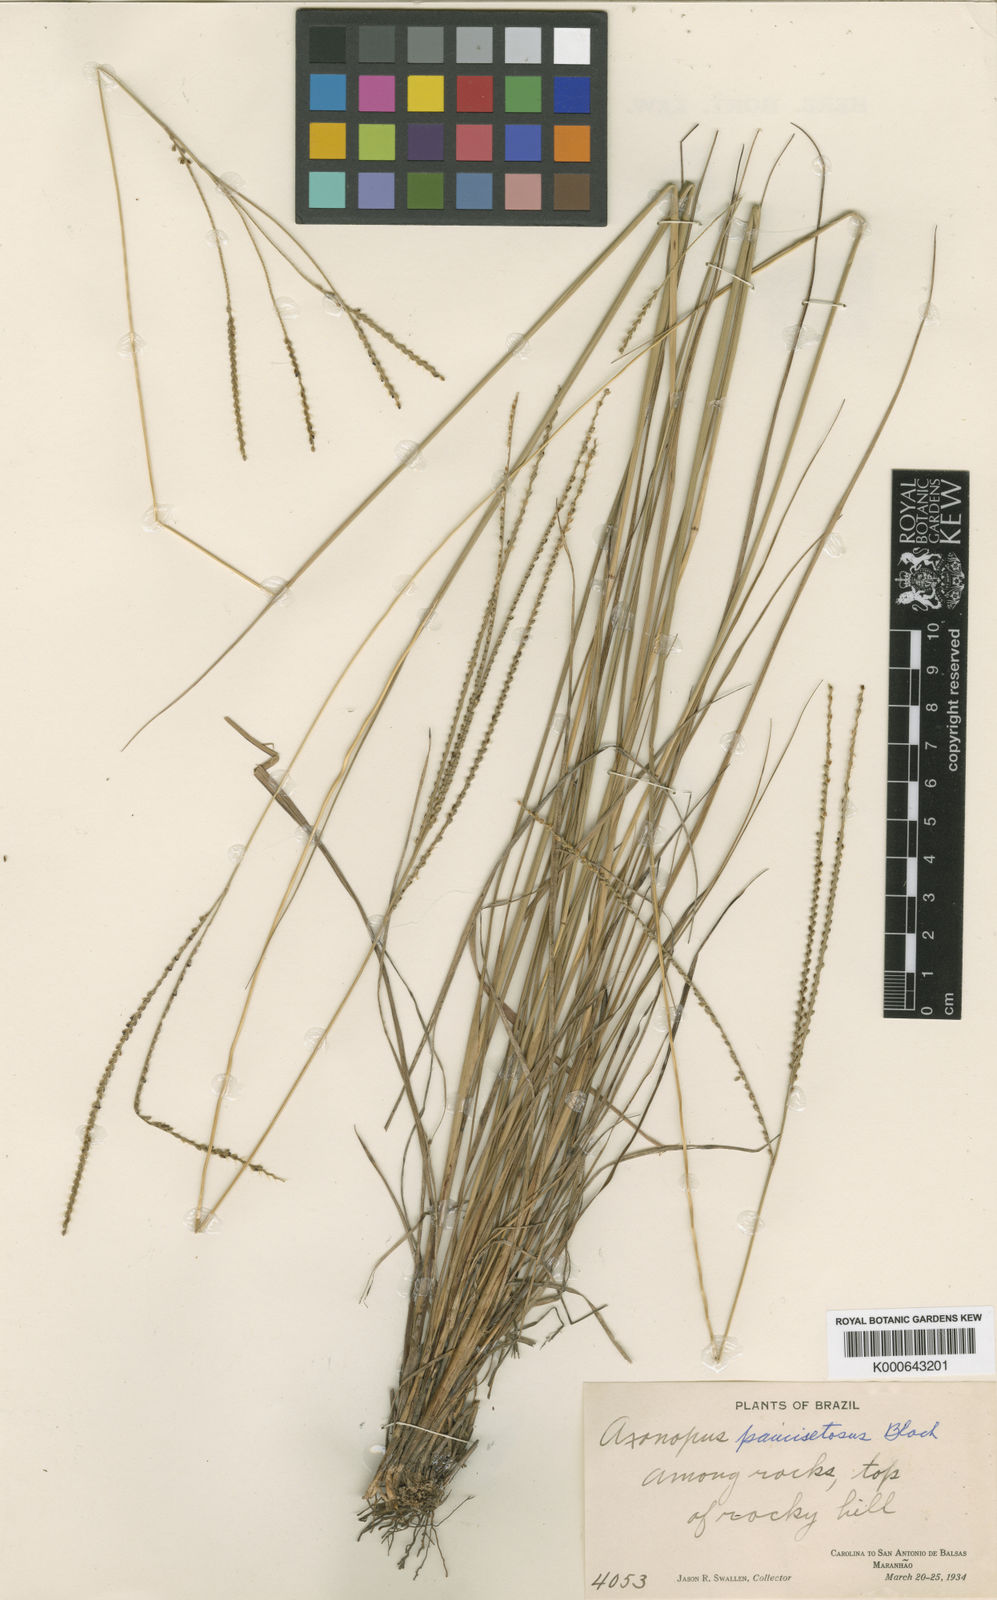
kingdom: Plantae
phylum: Tracheophyta
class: Liliopsida
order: Poales
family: Poaceae
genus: Axonopus
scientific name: Axonopus aureus
